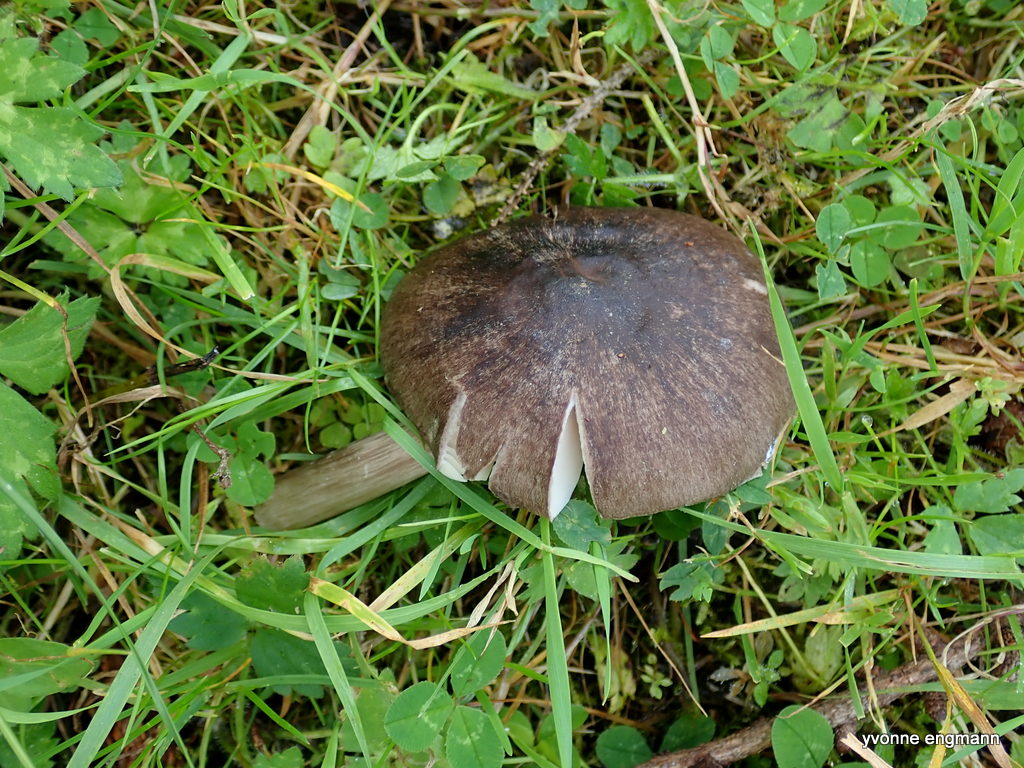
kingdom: Fungi
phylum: Basidiomycota
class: Agaricomycetes
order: Agaricales
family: Pluteaceae
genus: Pluteus
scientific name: Pluteus cervinus
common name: sodfarvet skærmhat
